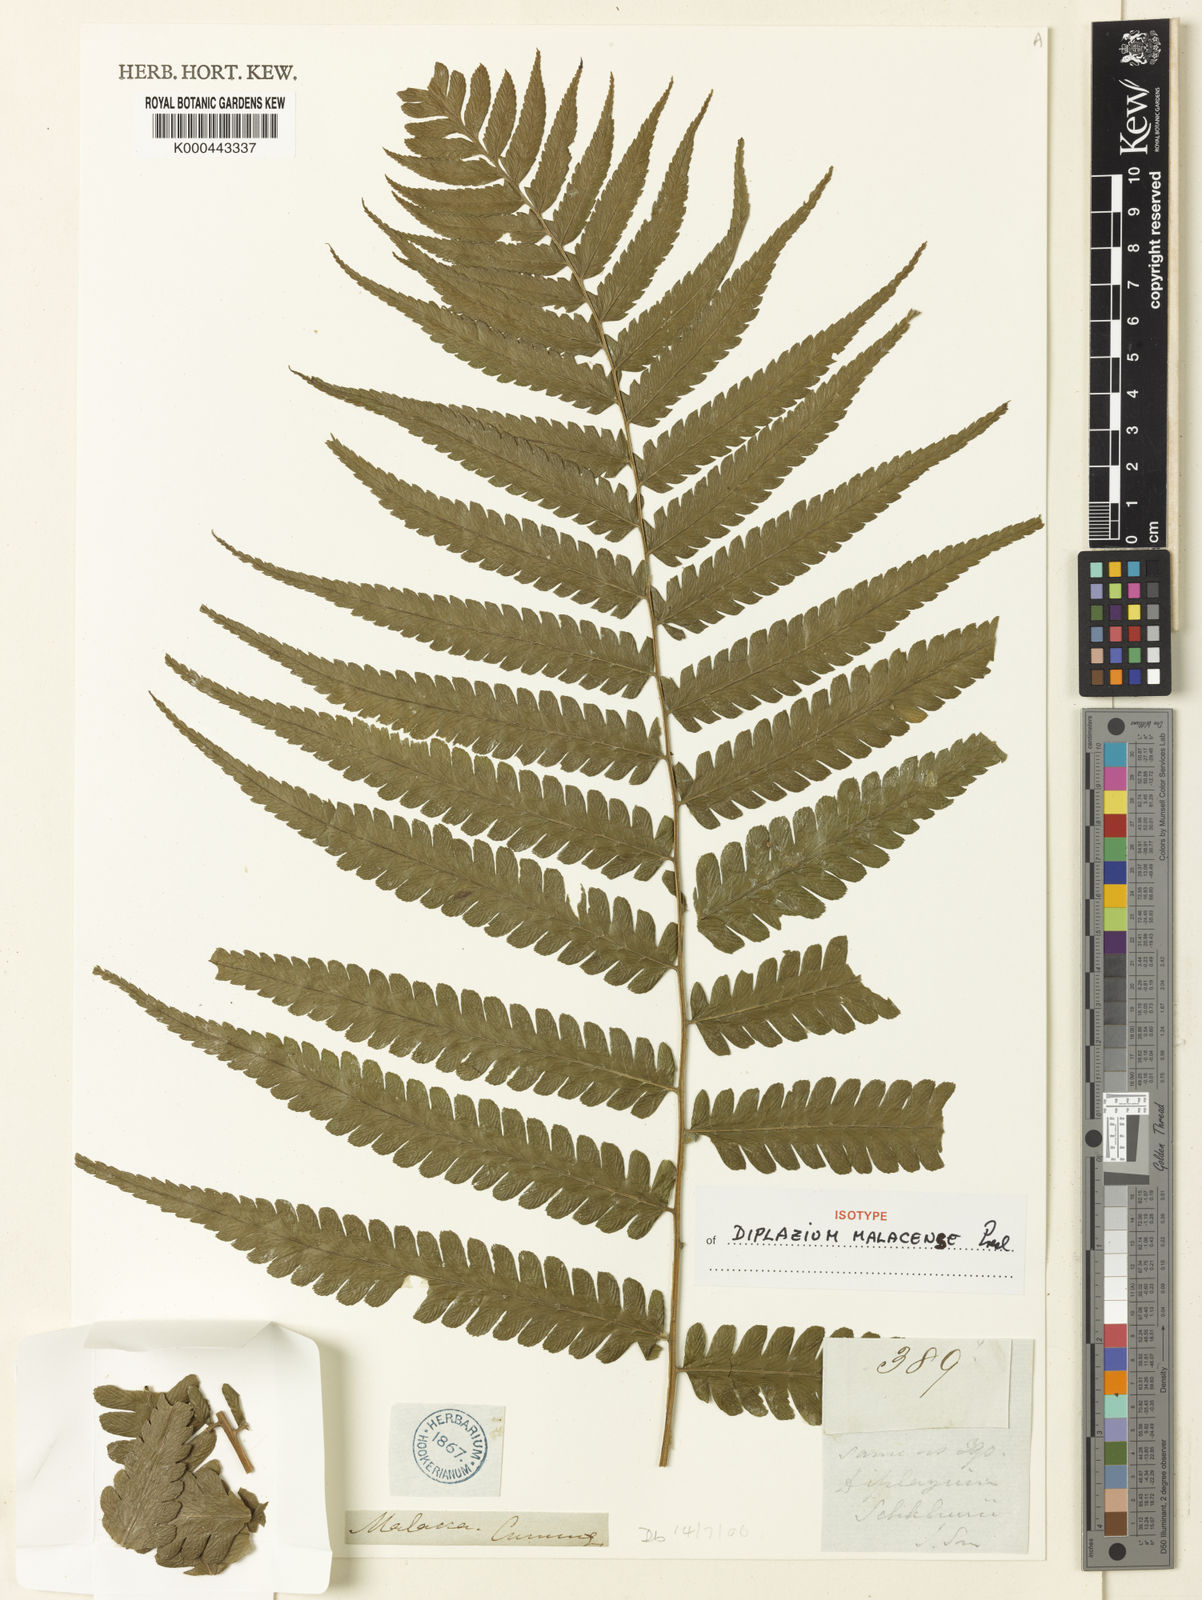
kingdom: Plantae
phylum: Tracheophyta
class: Polypodiopsida
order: Polypodiales
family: Athyriaceae
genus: Diplazium
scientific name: Diplazium holttumii
